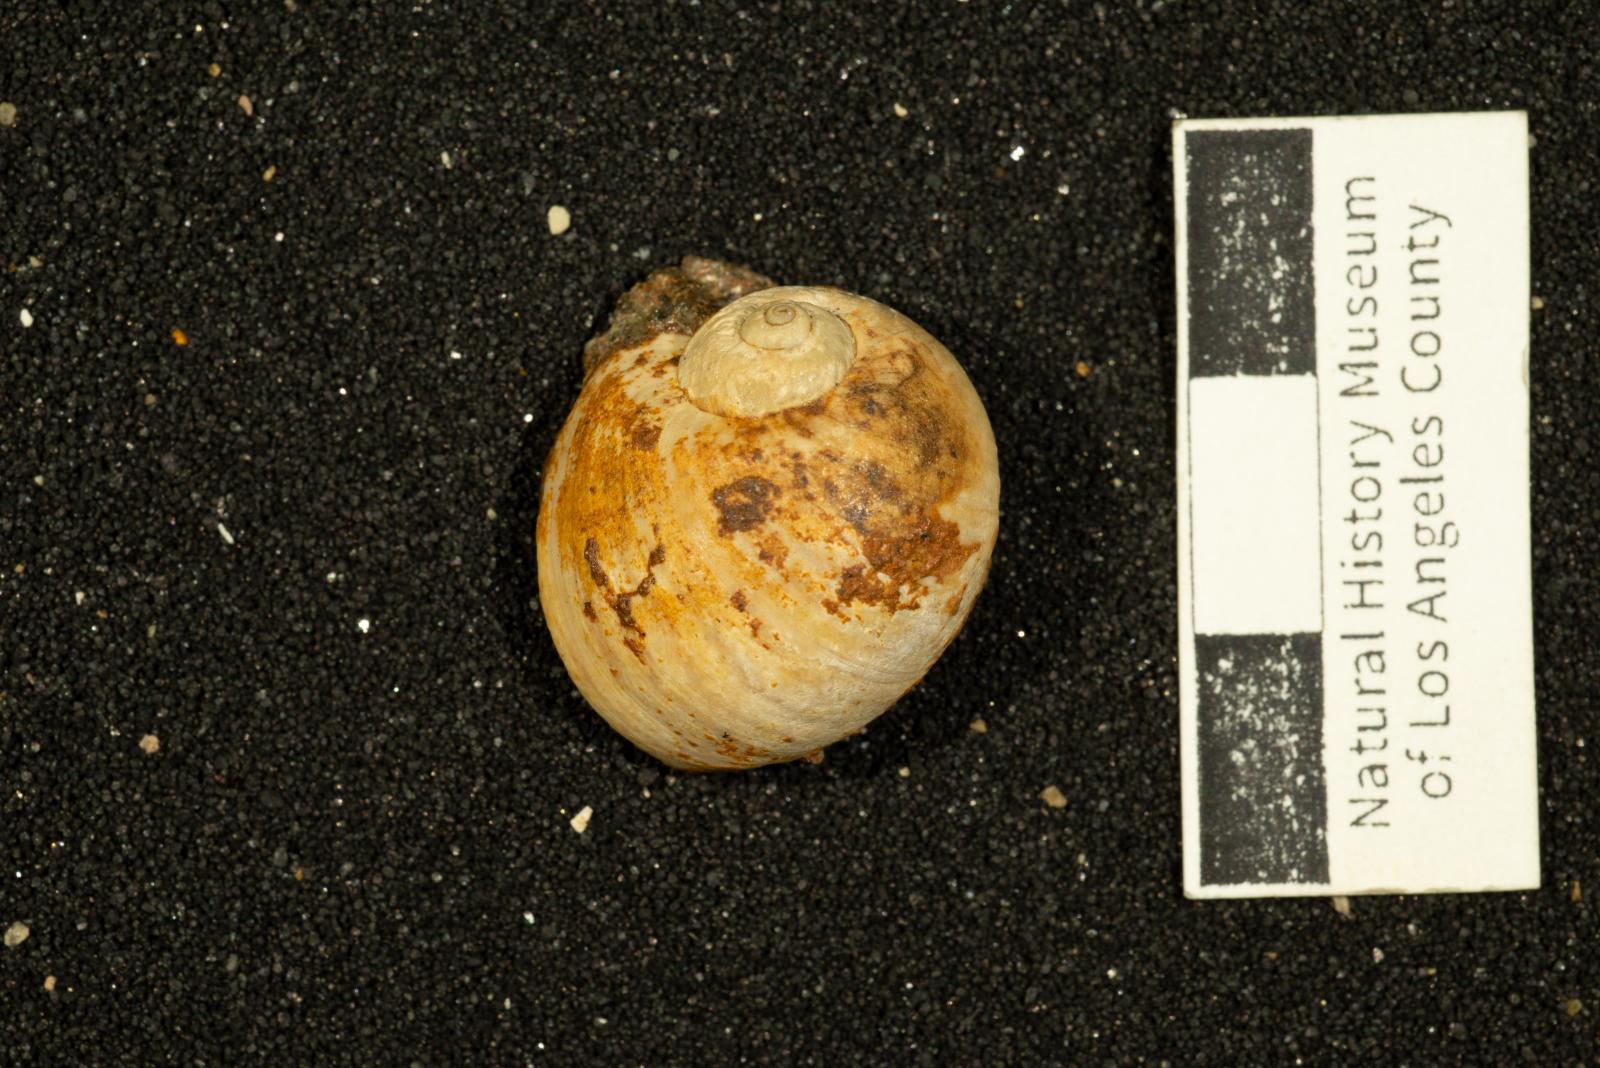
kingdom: Animalia
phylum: Mollusca
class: Gastropoda
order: Littorinimorpha
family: Naticidae
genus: Natica
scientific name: Natica conradiana
